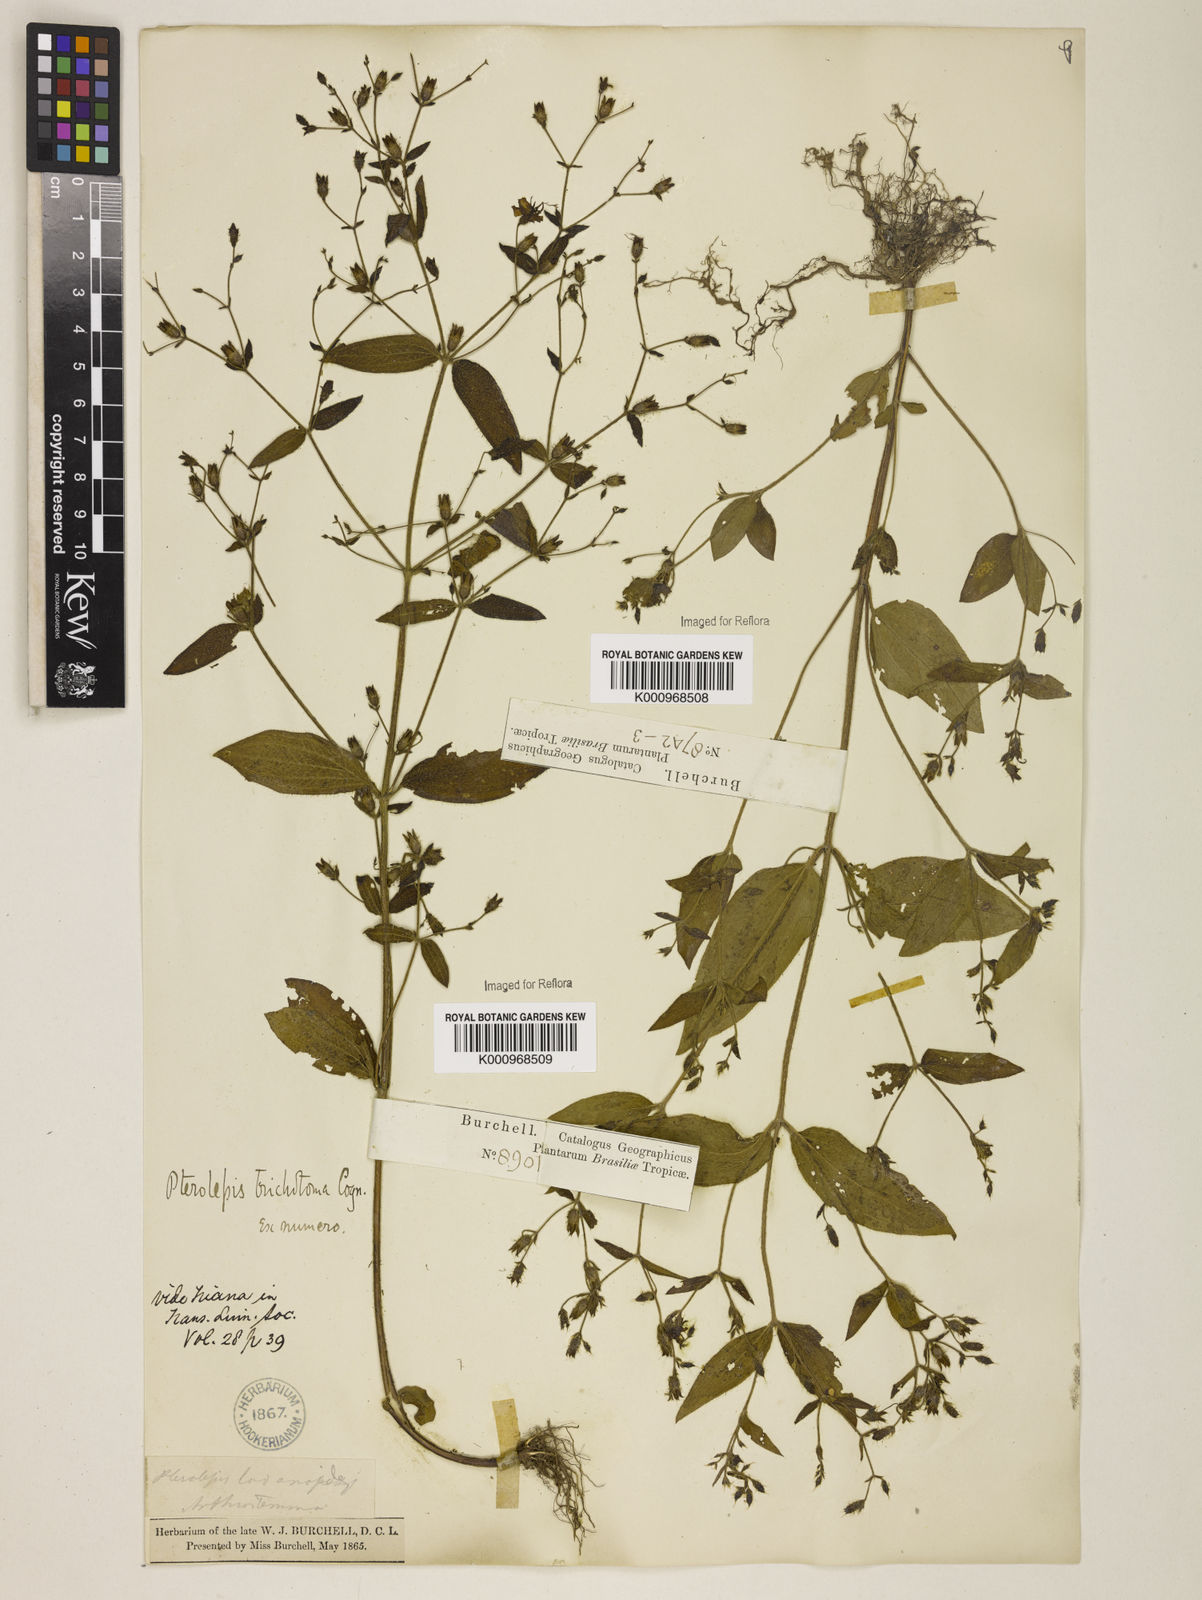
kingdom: Plantae
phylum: Tracheophyta
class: Magnoliopsida
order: Myrtales
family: Melastomataceae
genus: Pterolepis
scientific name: Pterolepis trichotoma
